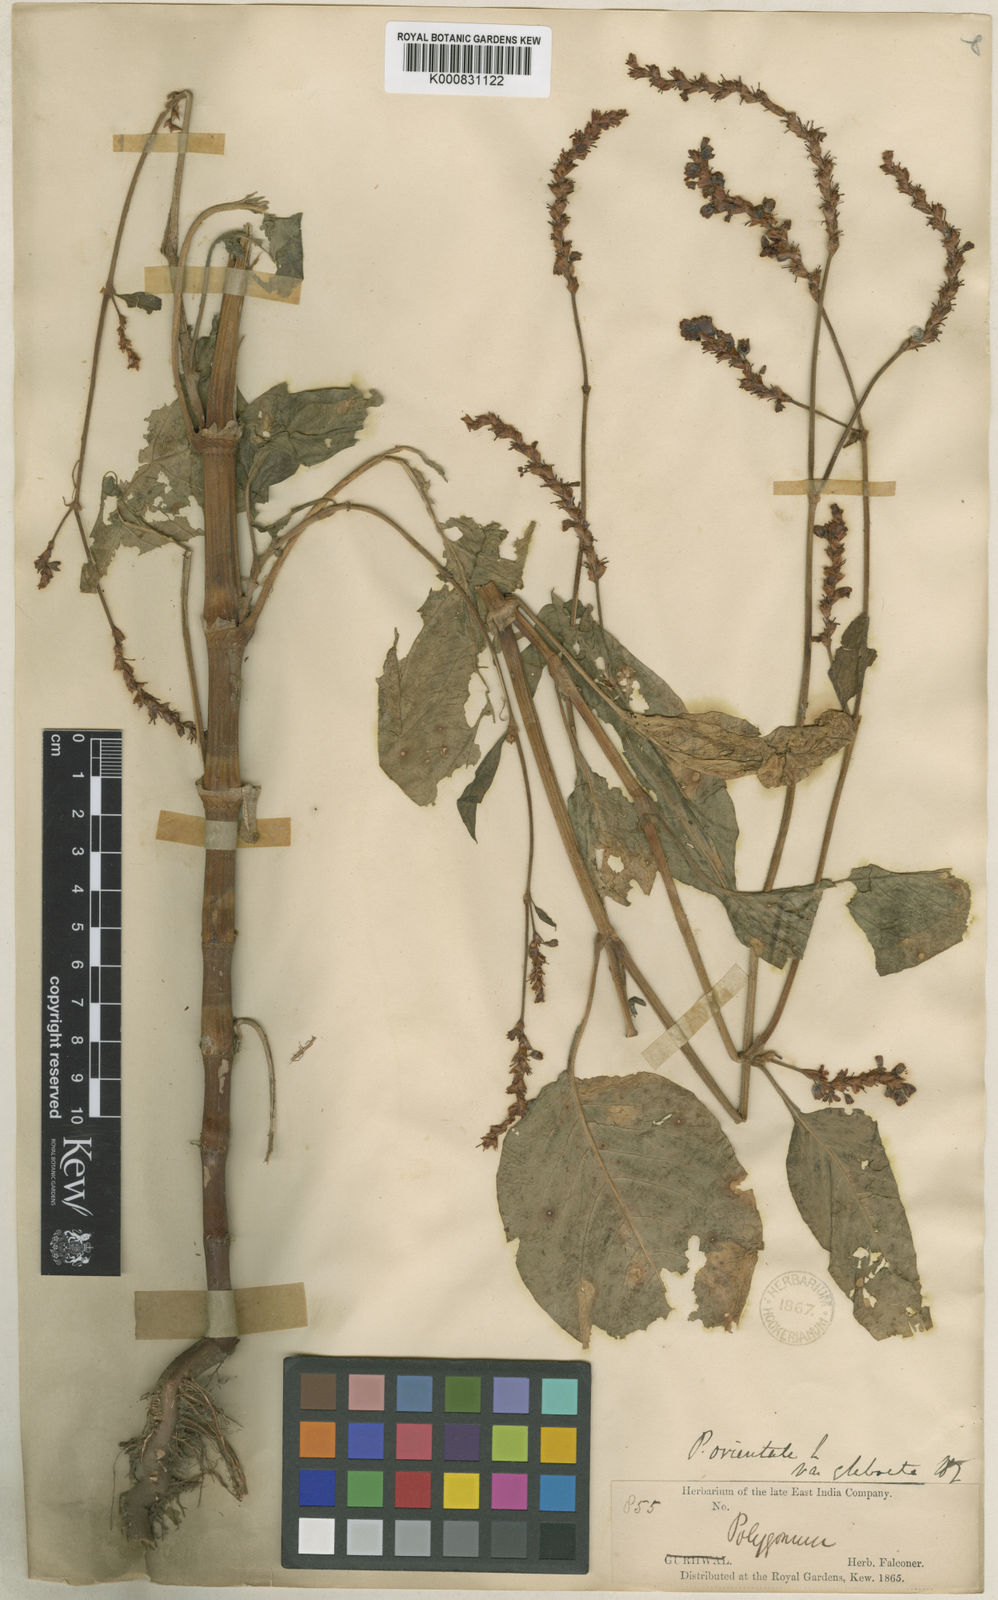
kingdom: Plantae
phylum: Tracheophyta
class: Magnoliopsida
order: Caryophyllales
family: Polygonaceae
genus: Persicaria
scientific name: Persicaria orientalis
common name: Kiss-me-over-the-garden-gate
